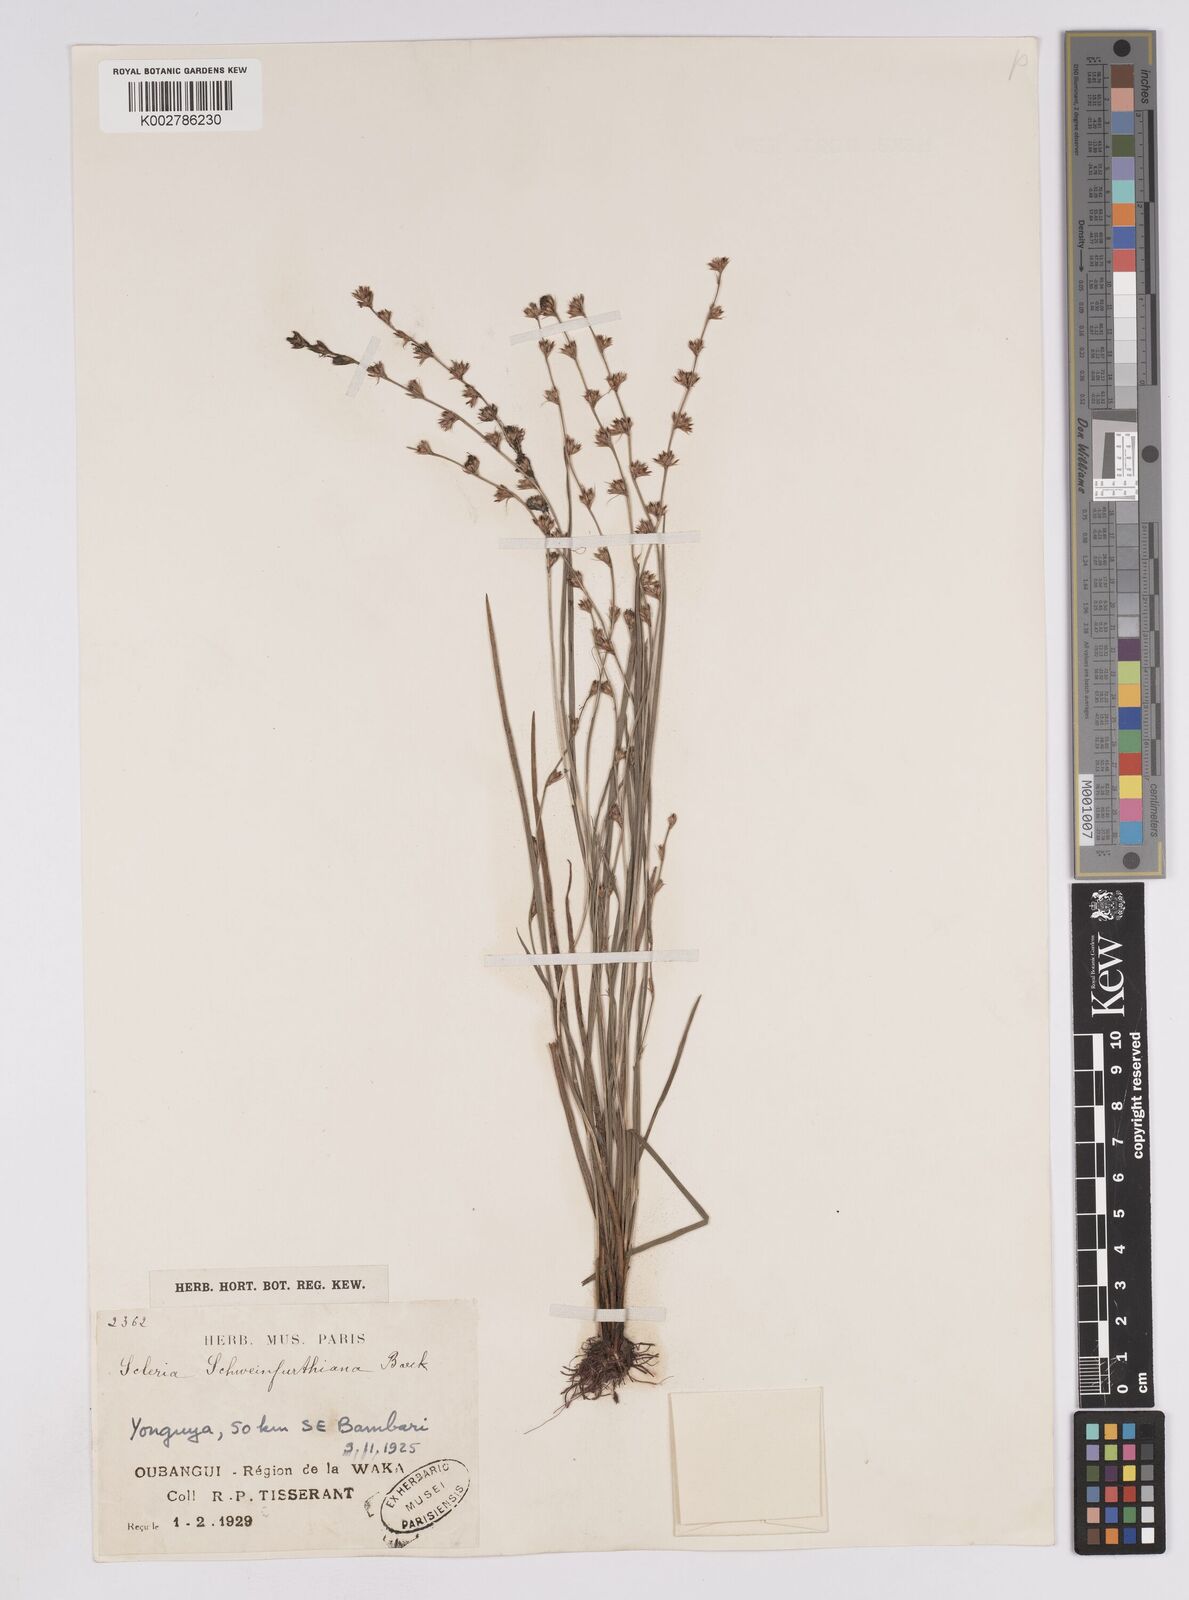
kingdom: Plantae
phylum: Tracheophyta
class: Liliopsida
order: Poales
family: Cyperaceae
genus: Scleria
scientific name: Scleria hirtella
